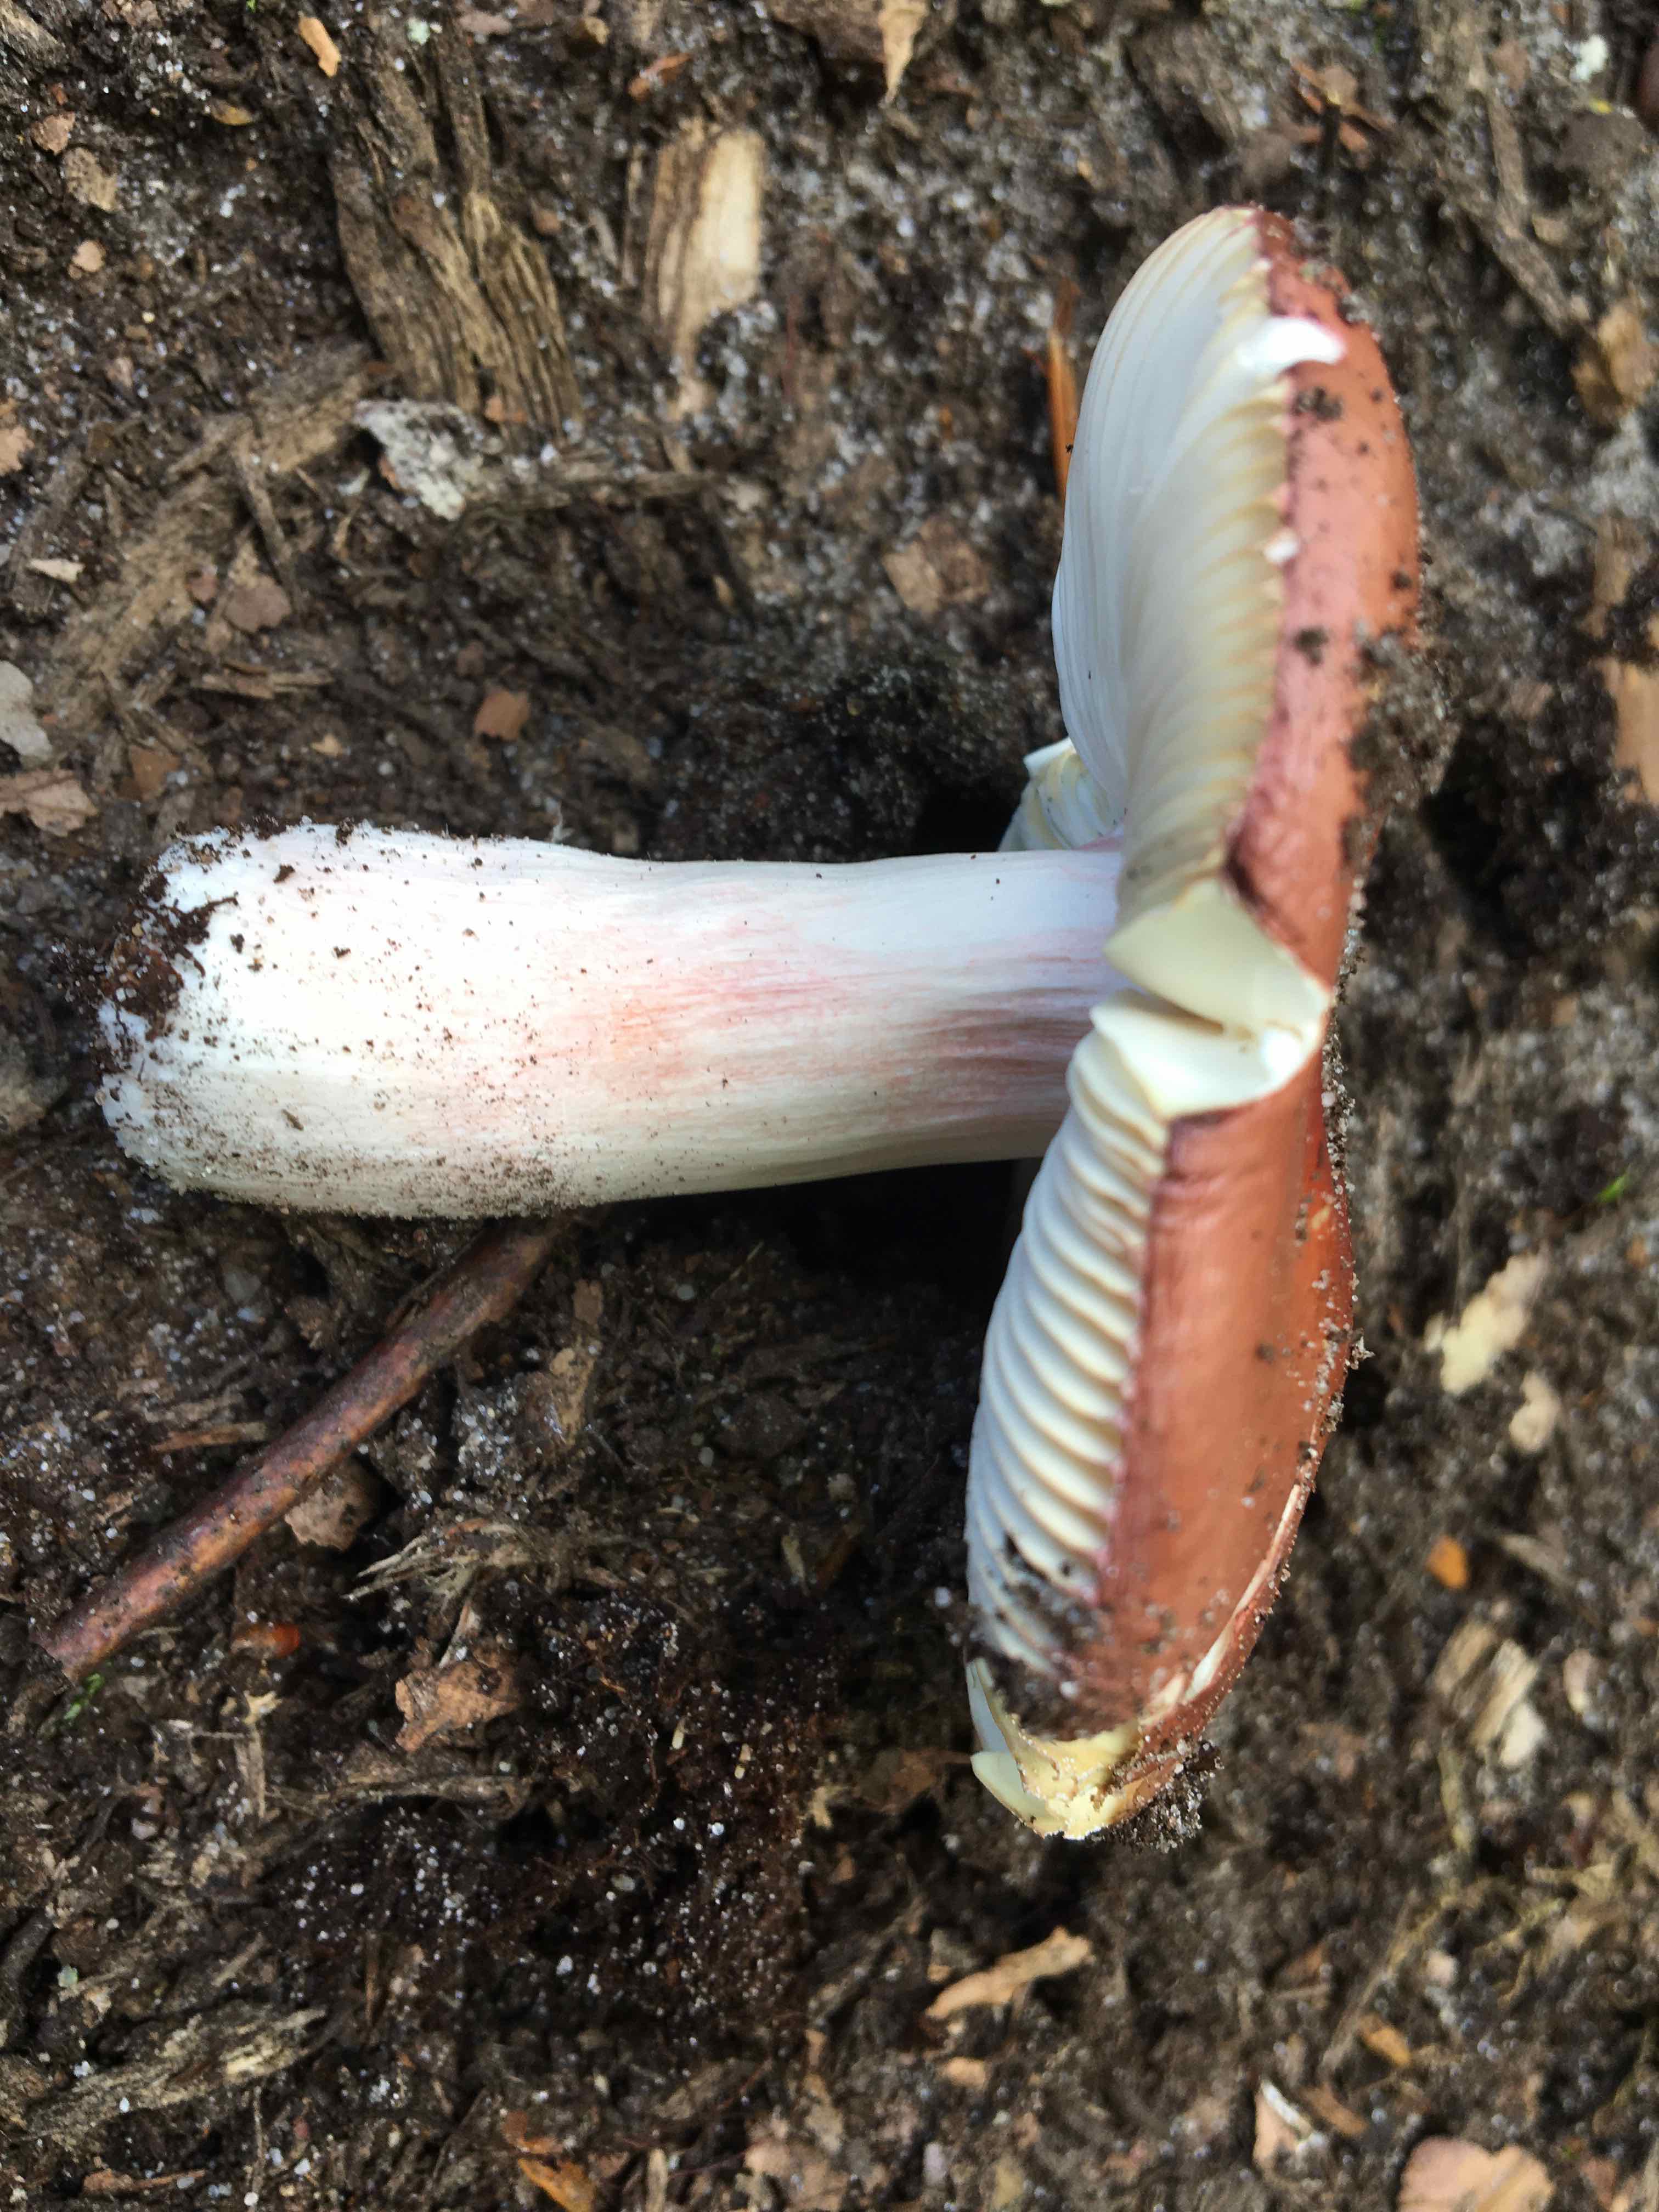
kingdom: Fungi
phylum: Basidiomycota
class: Agaricomycetes
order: Russulales
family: Russulaceae
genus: Russula
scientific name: Russula velenovskyi
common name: orangerød skørhat
